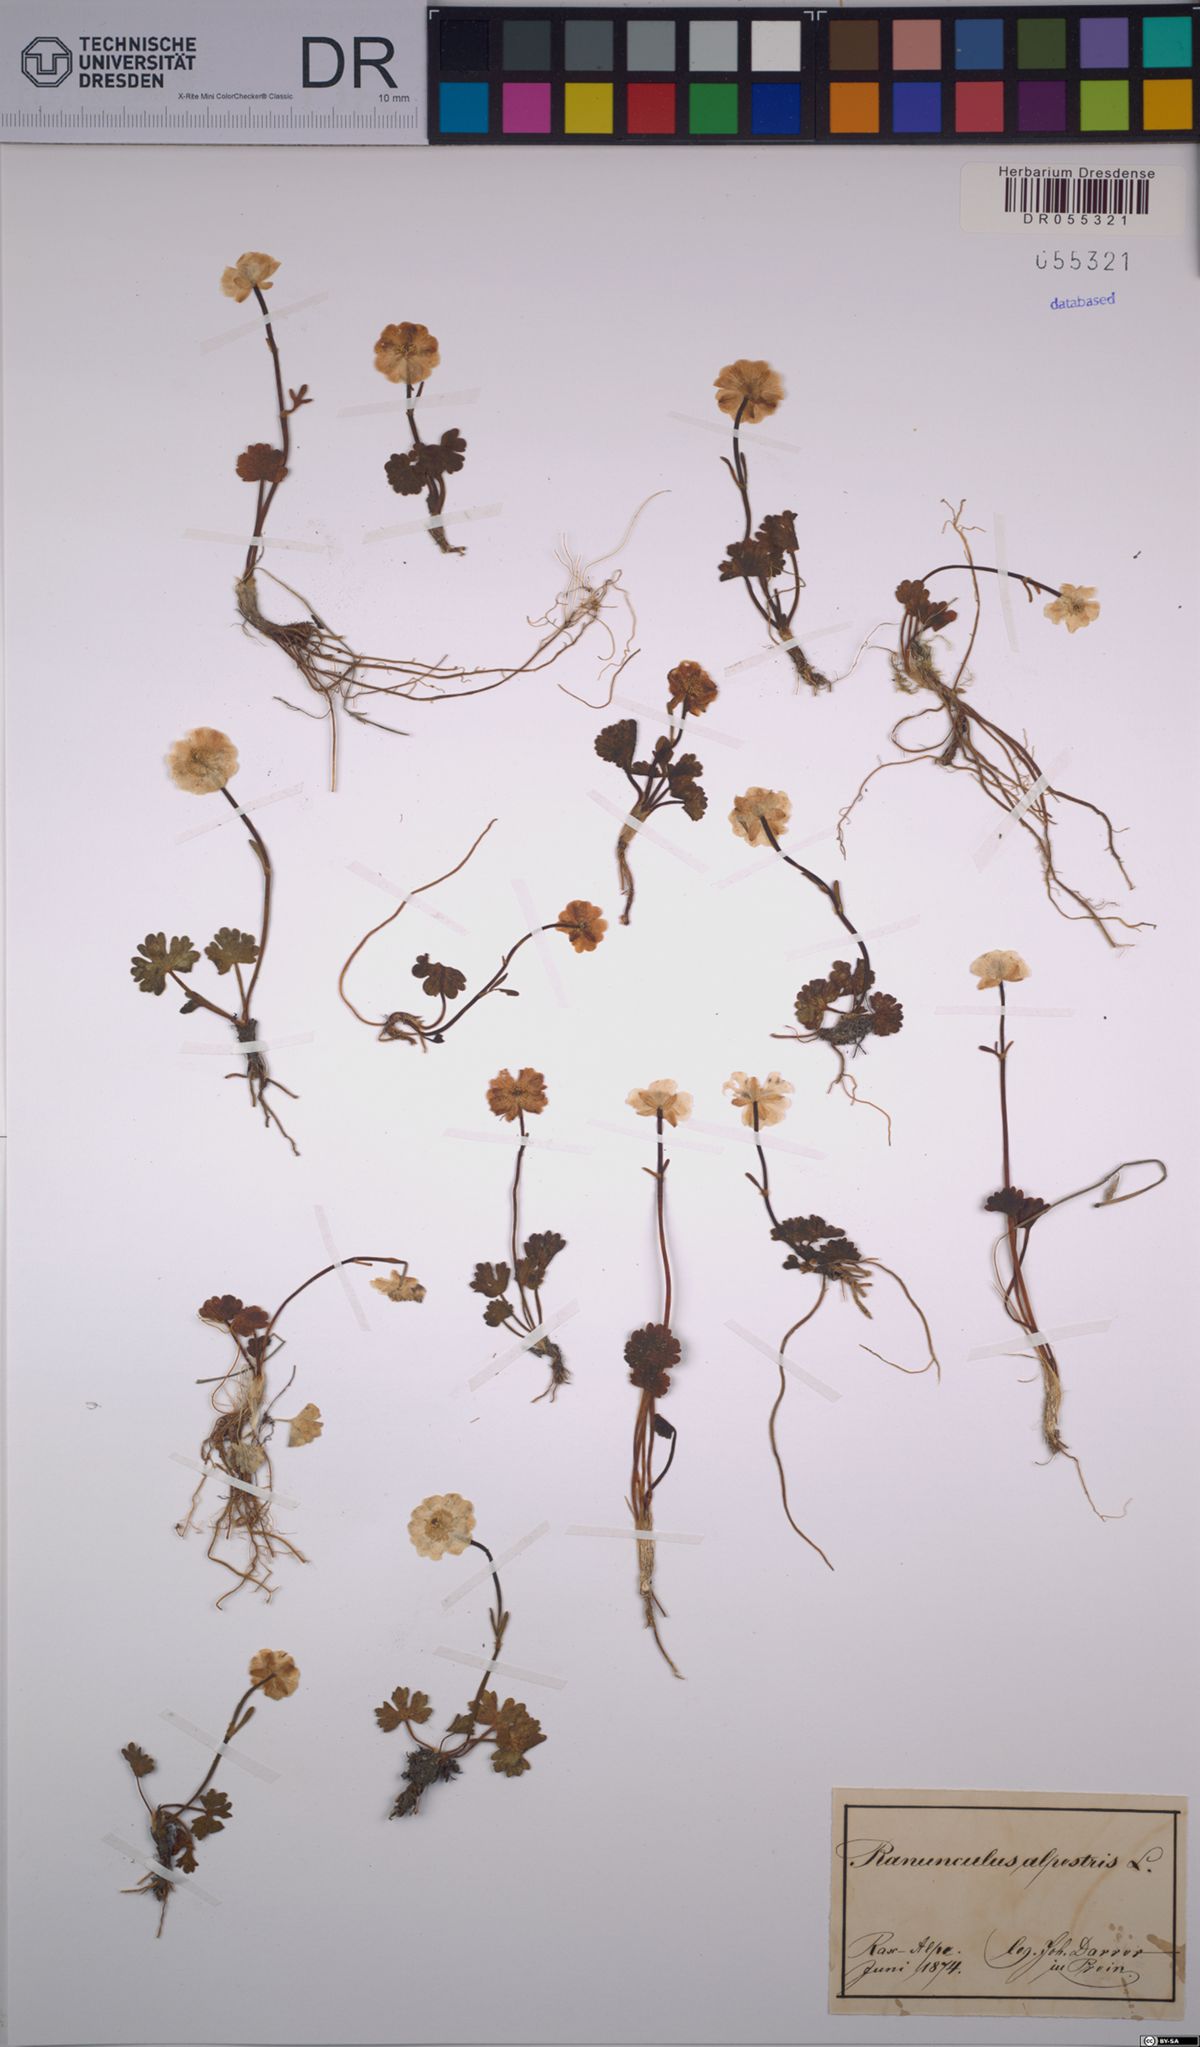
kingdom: Plantae
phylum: Tracheophyta
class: Magnoliopsida
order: Ranunculales
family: Ranunculaceae
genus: Ranunculus
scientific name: Ranunculus alpestris
